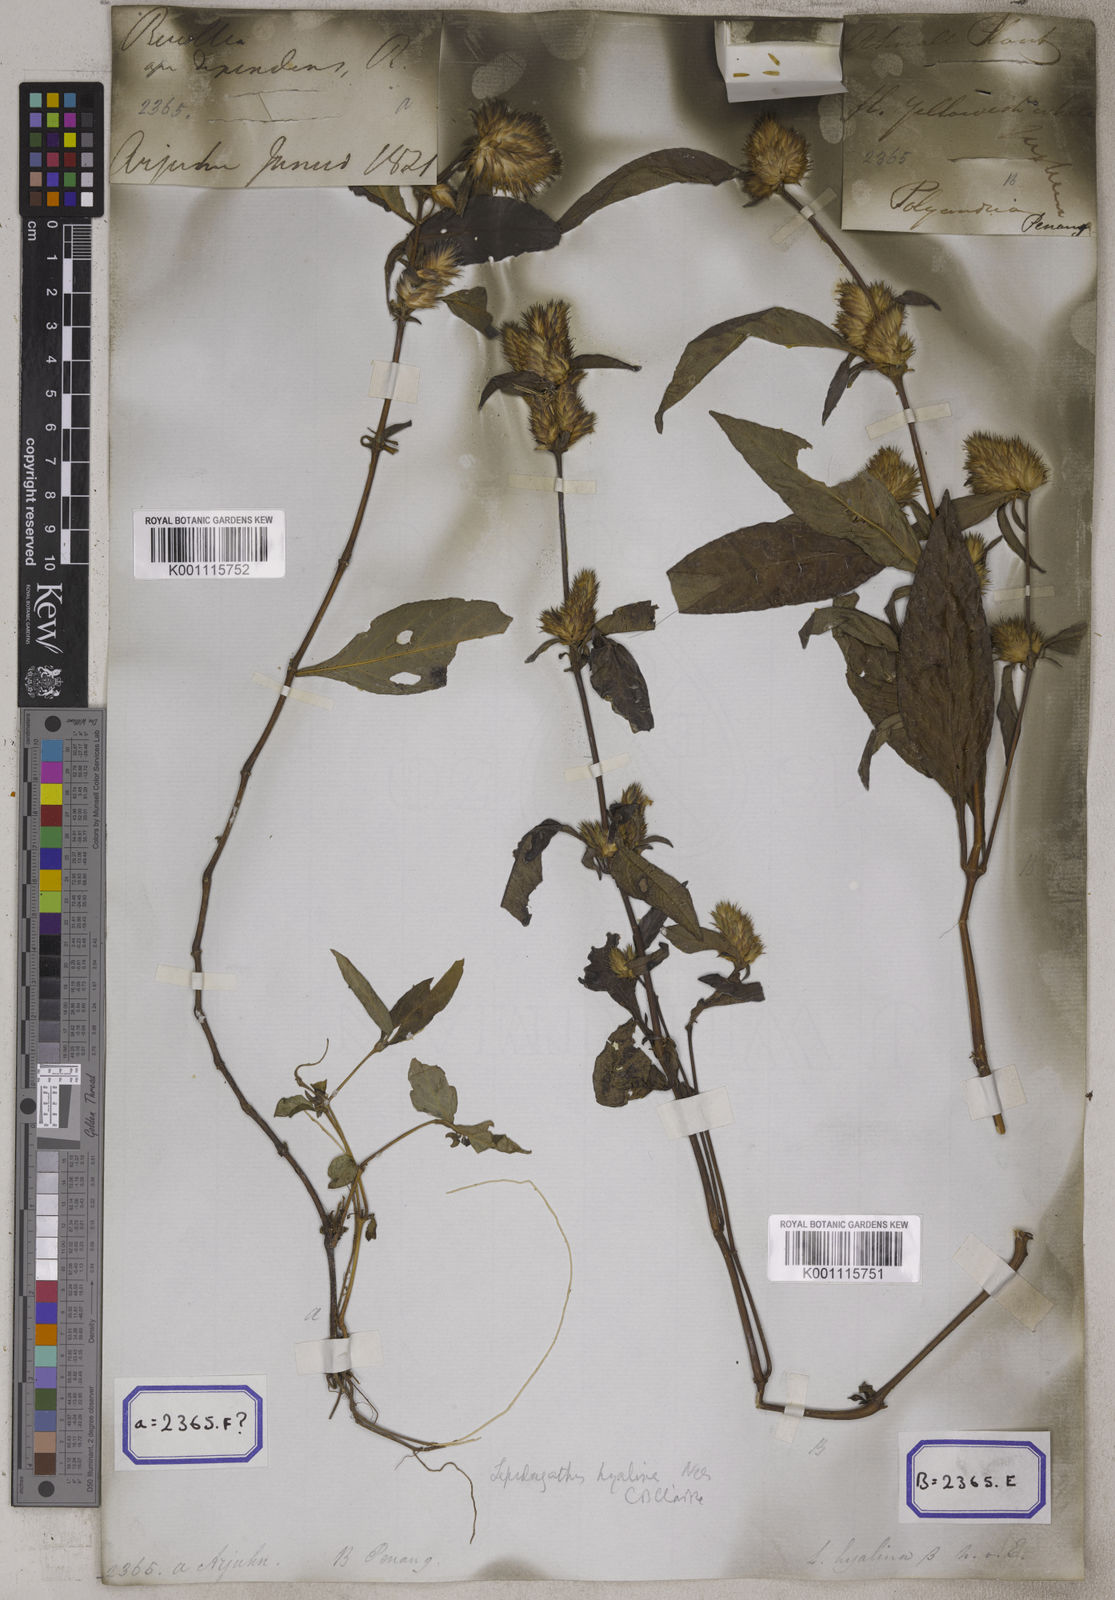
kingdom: Plantae
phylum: Tracheophyta
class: Magnoliopsida
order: Lamiales
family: Acanthaceae
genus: Lepidagathis
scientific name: Lepidagathis incurva
